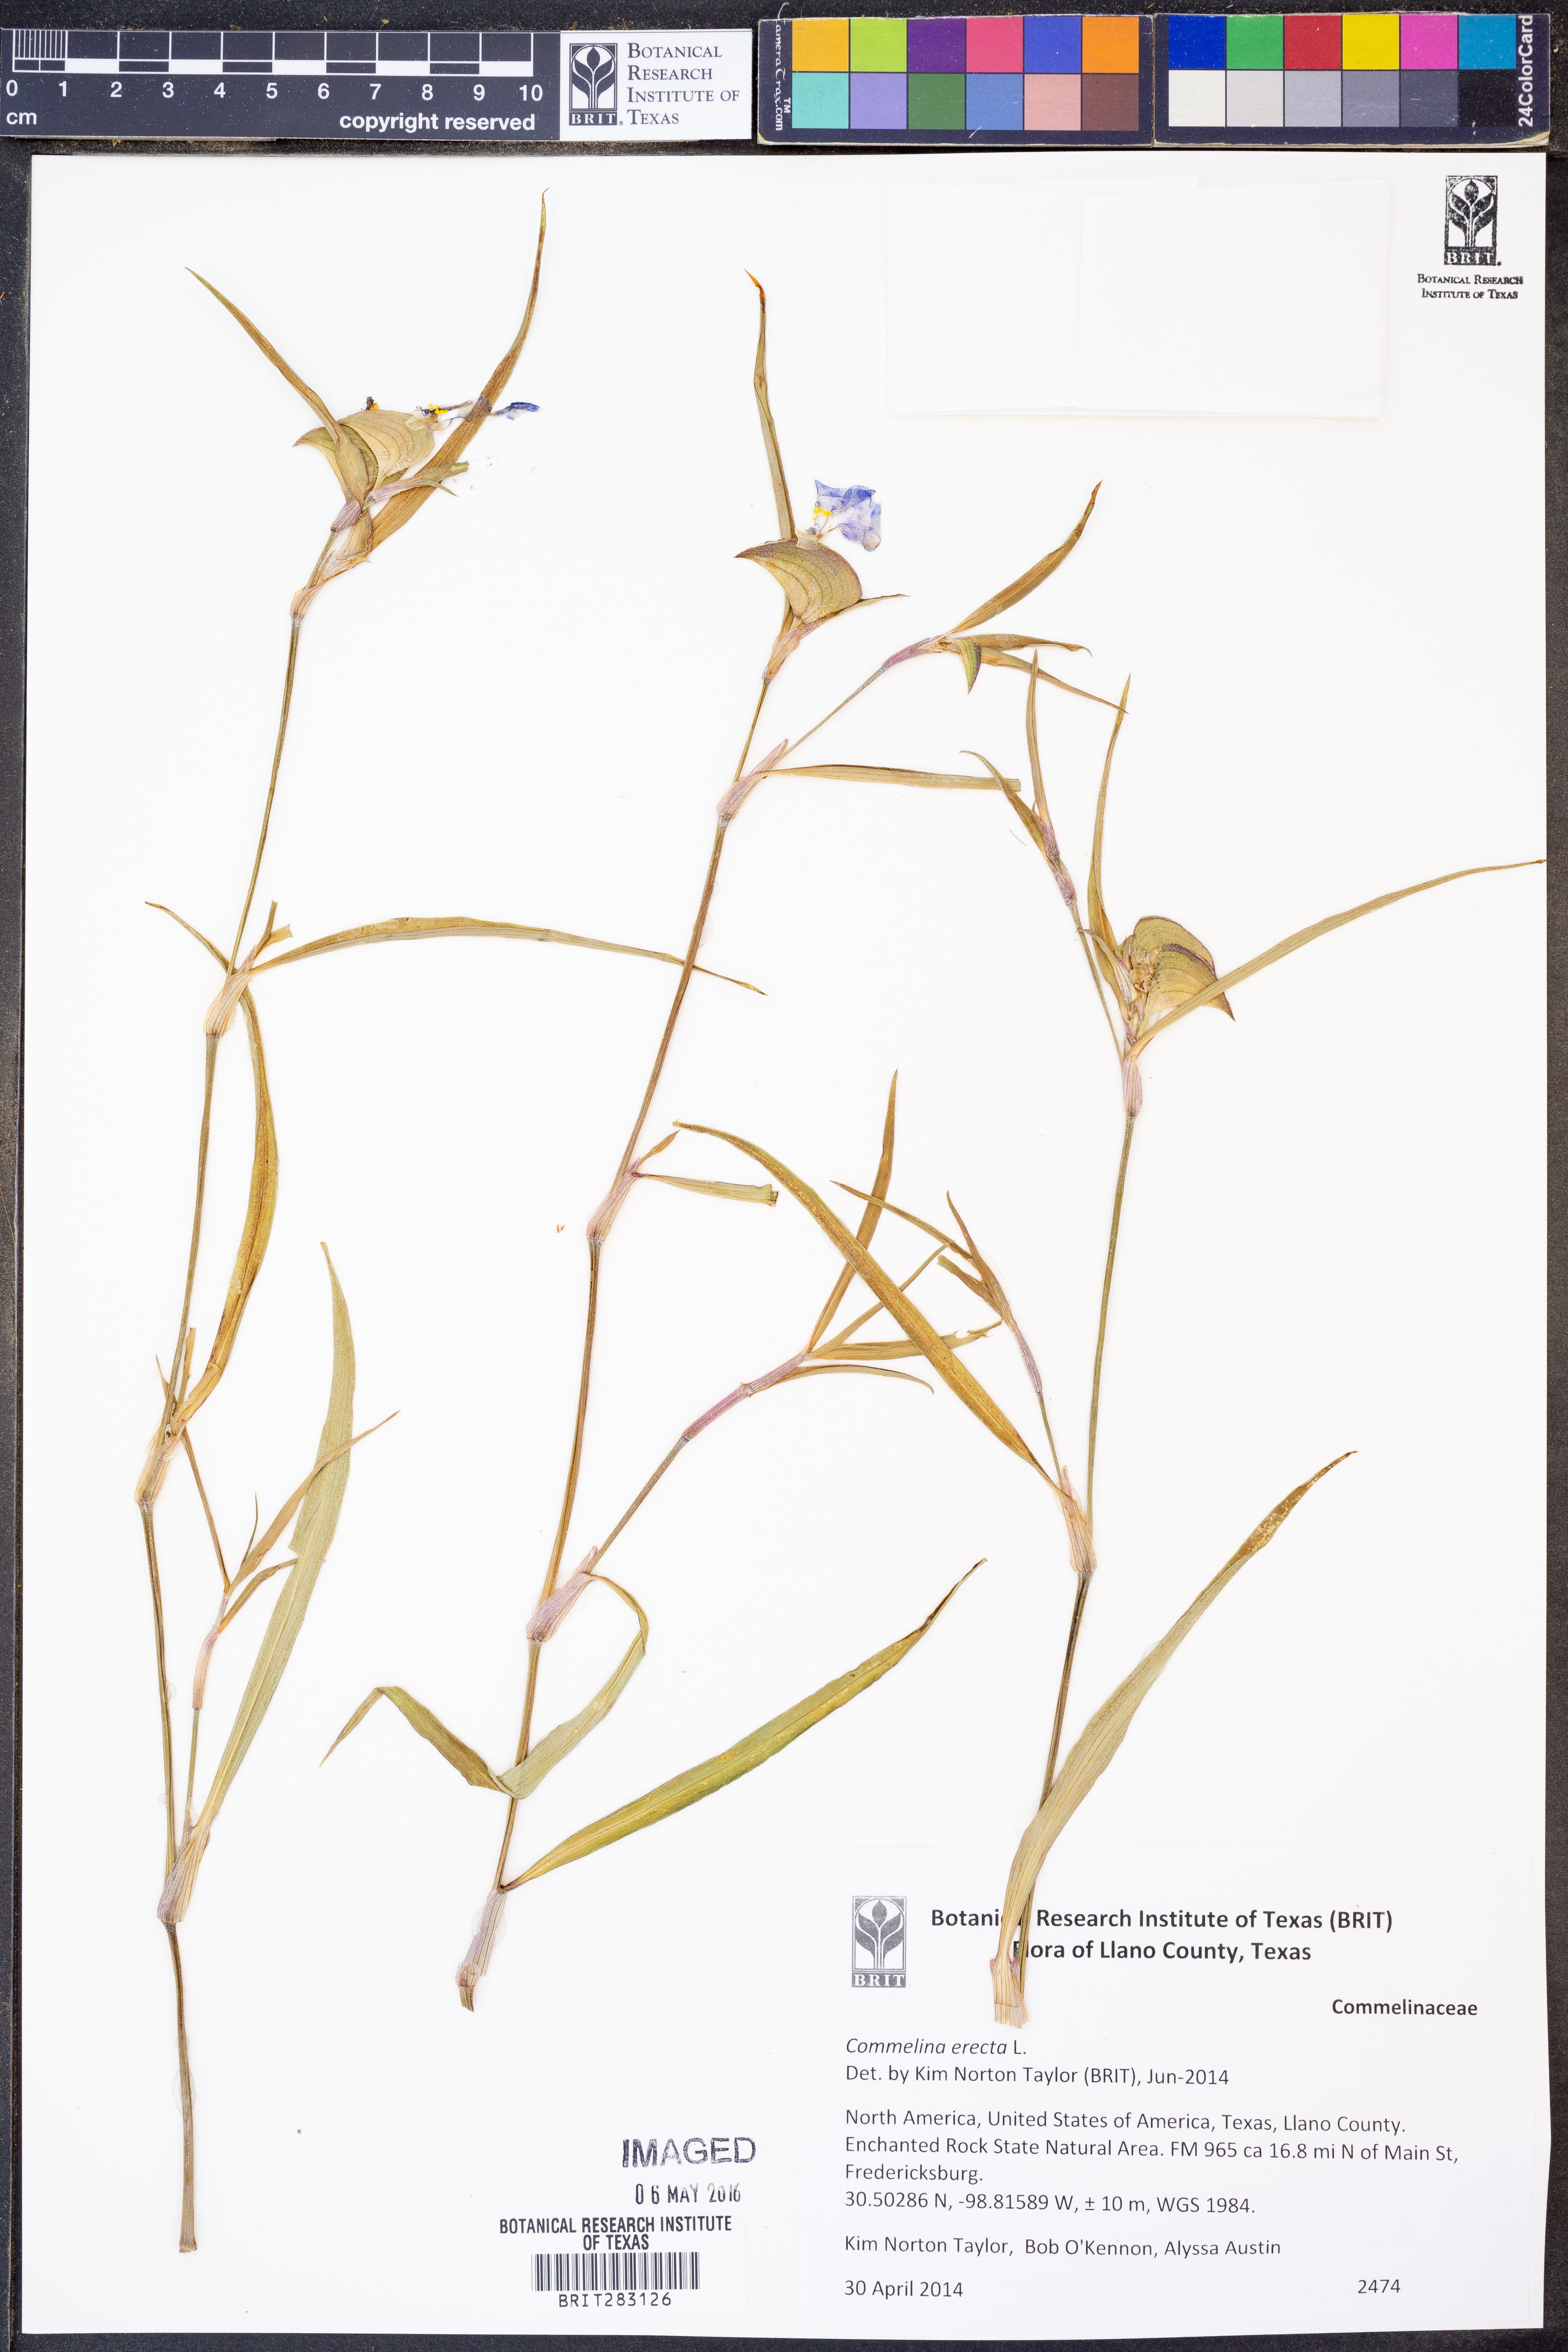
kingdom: Plantae
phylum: Tracheophyta
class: Liliopsida
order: Commelinales
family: Commelinaceae
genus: Commelina
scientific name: Commelina erecta
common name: Blousel blommetjie
